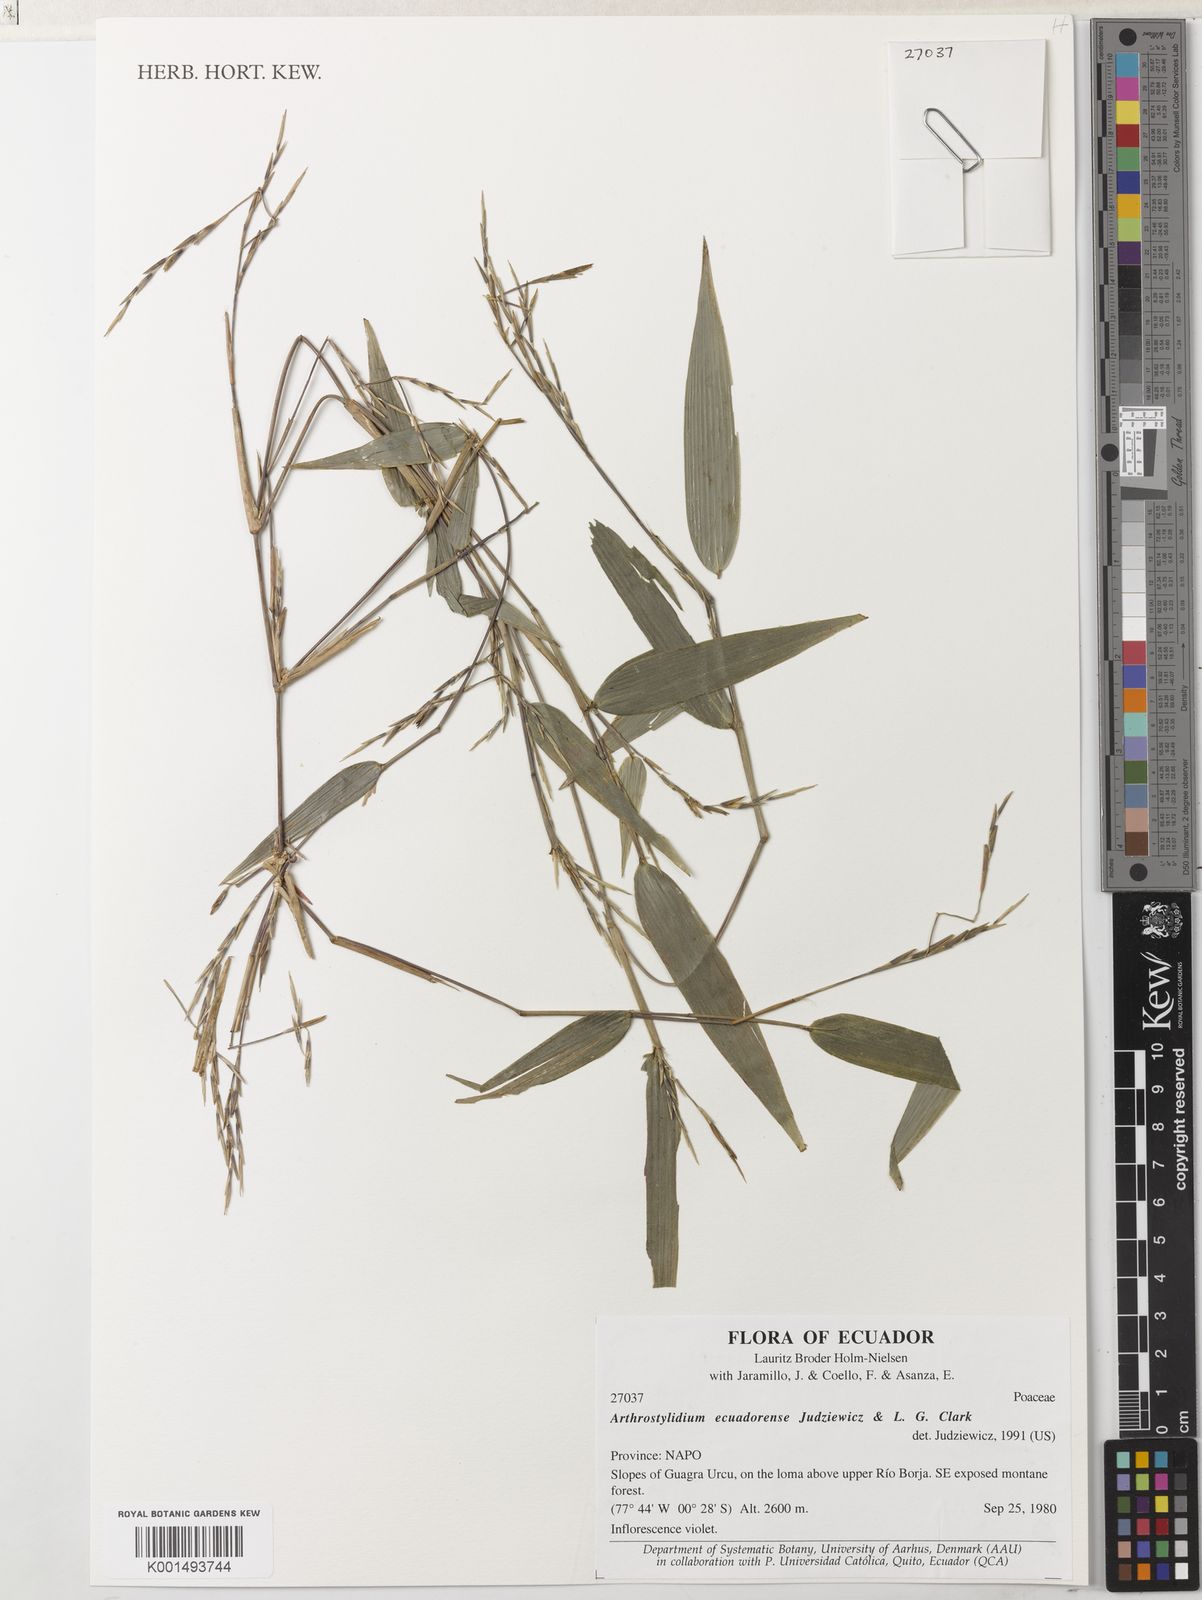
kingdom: Plantae
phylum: Tracheophyta
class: Liliopsida
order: Poales
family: Poaceae
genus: Aulonemiella
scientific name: Aulonemiella ecuadorensis
